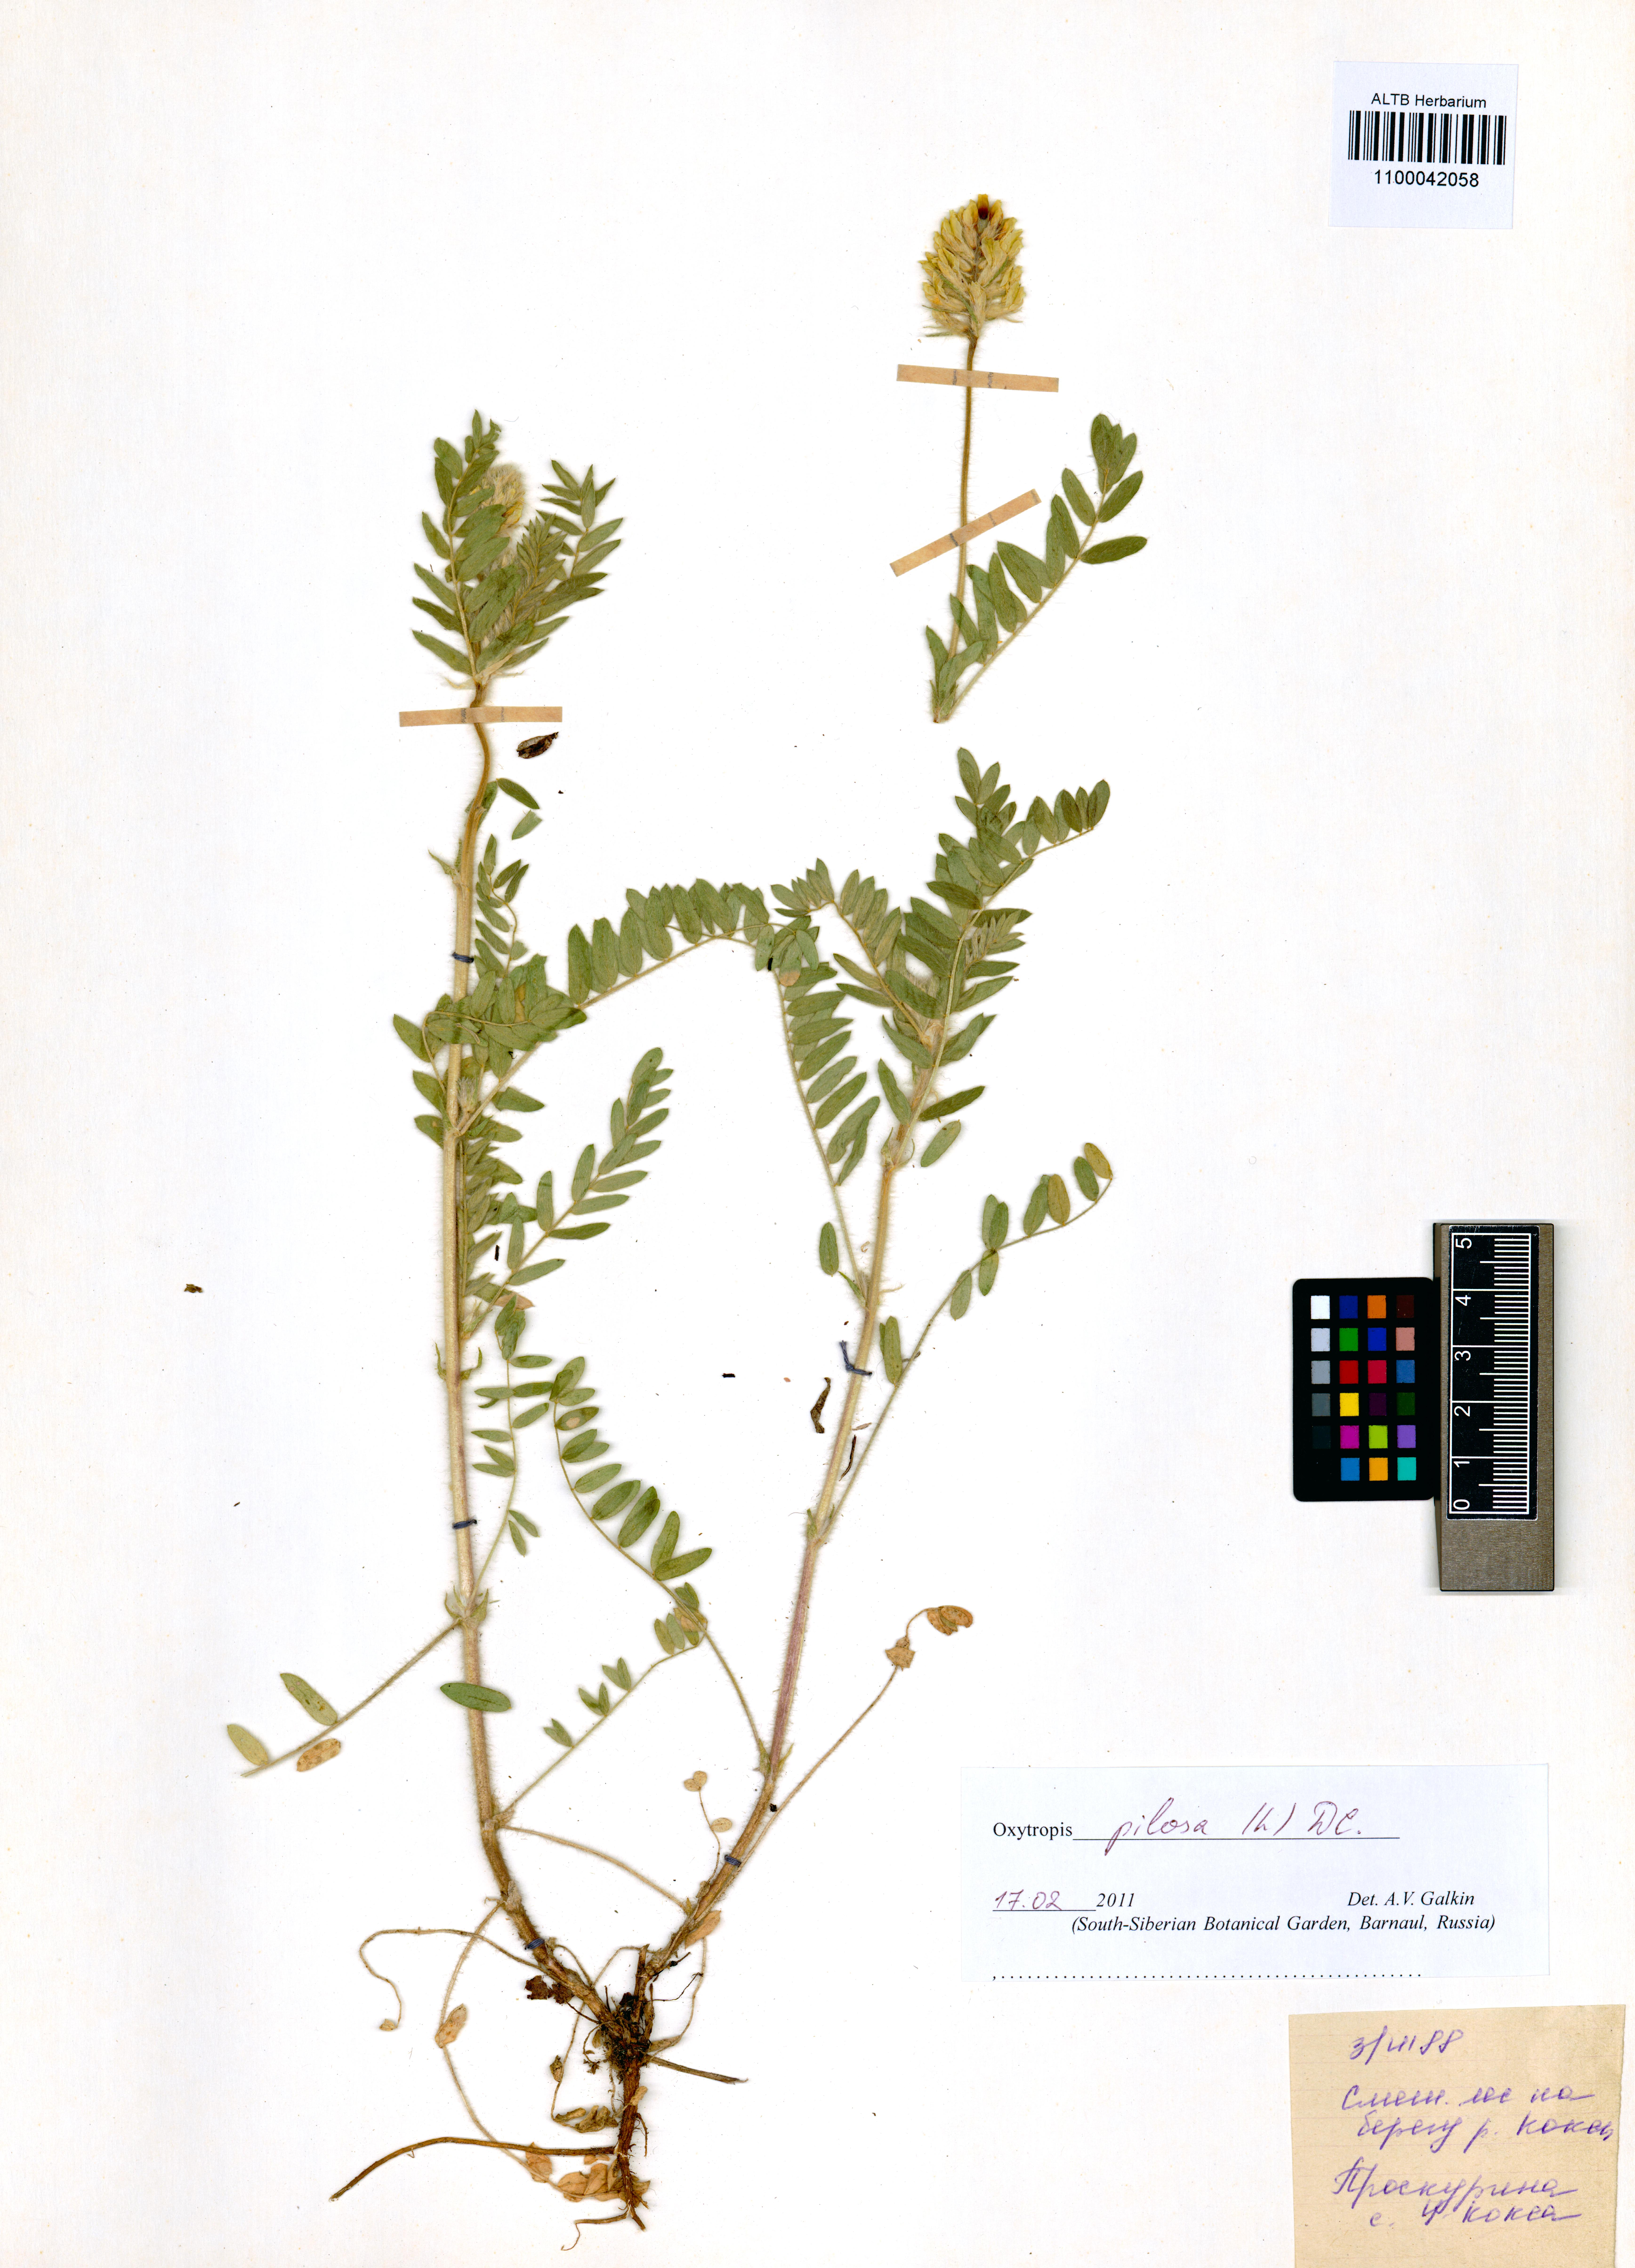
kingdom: Plantae
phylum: Tracheophyta
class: Magnoliopsida
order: Fabales
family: Fabaceae
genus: Oxytropis
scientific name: Oxytropis pilosa
